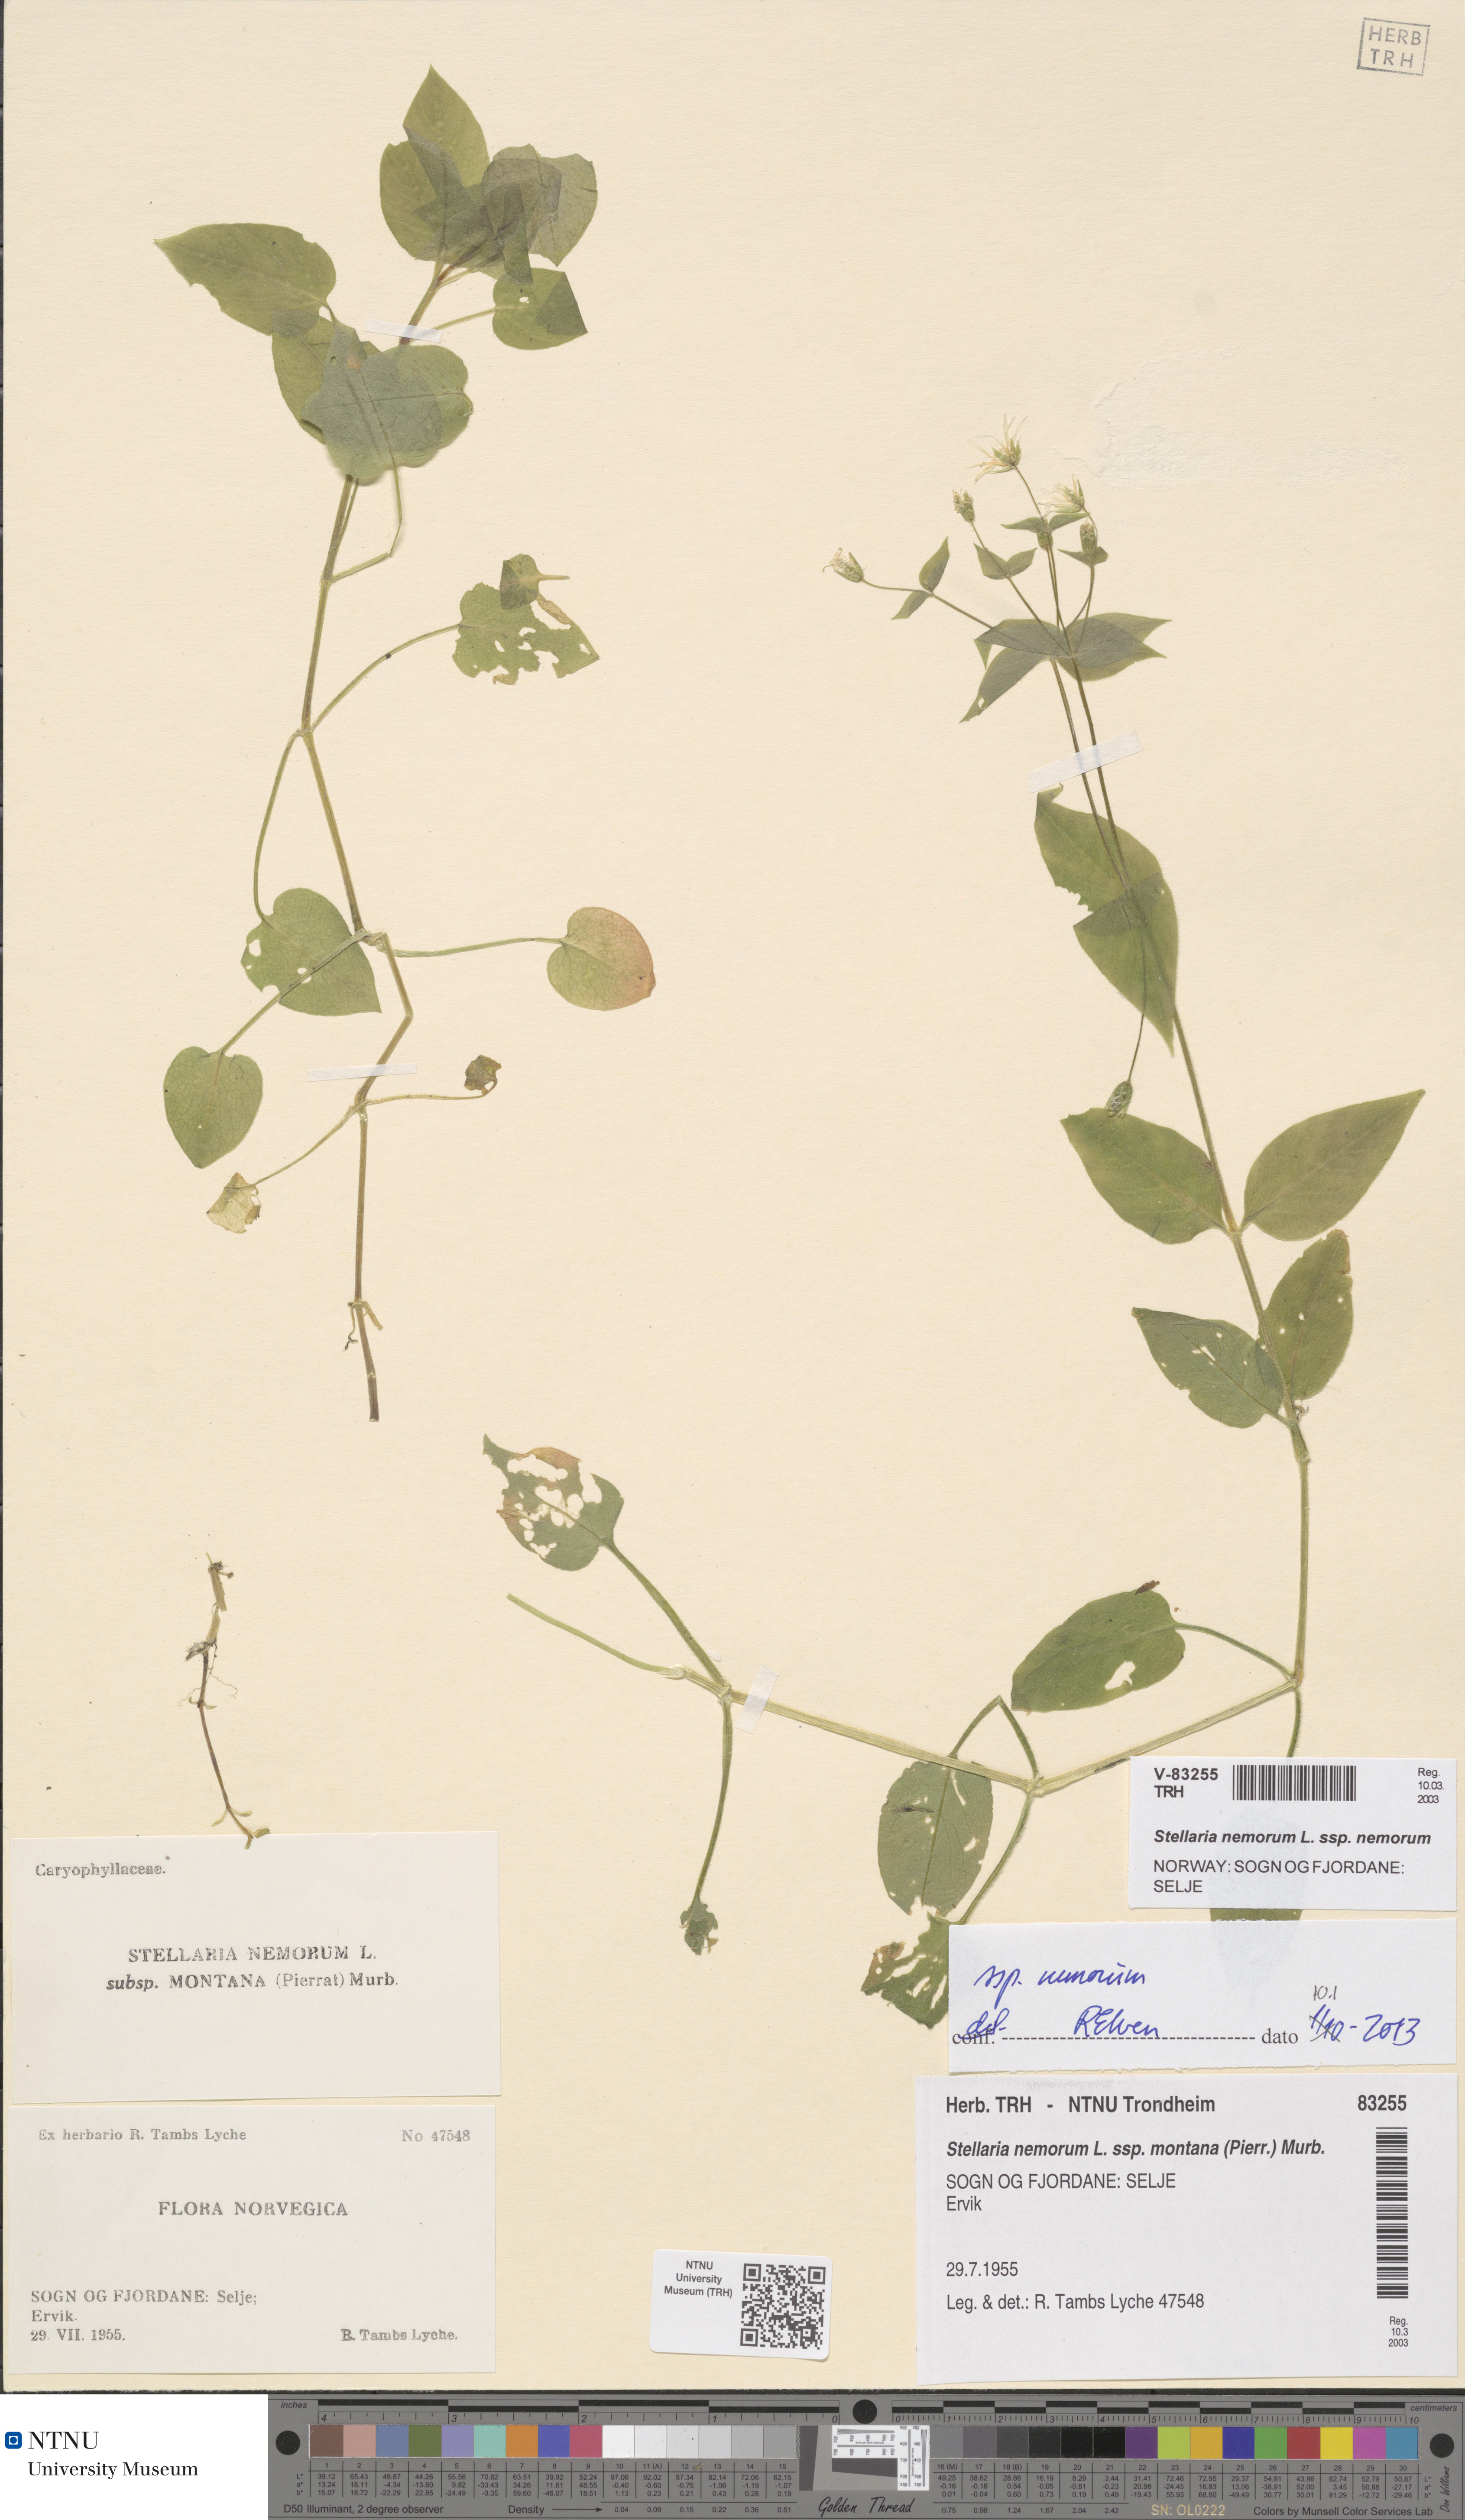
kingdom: Plantae
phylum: Tracheophyta
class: Magnoliopsida
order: Caryophyllales
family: Caryophyllaceae
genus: Stellaria
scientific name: Stellaria nemorum
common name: Wood stitchwort
